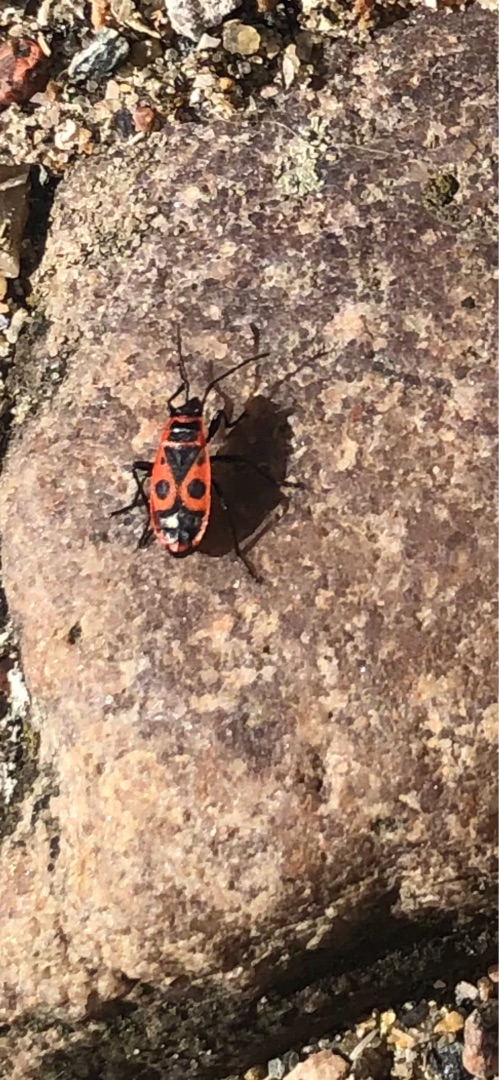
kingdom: Animalia
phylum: Arthropoda
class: Insecta
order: Hemiptera
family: Pyrrhocoridae
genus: Pyrrhocoris
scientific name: Pyrrhocoris apterus
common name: Ildtæge
